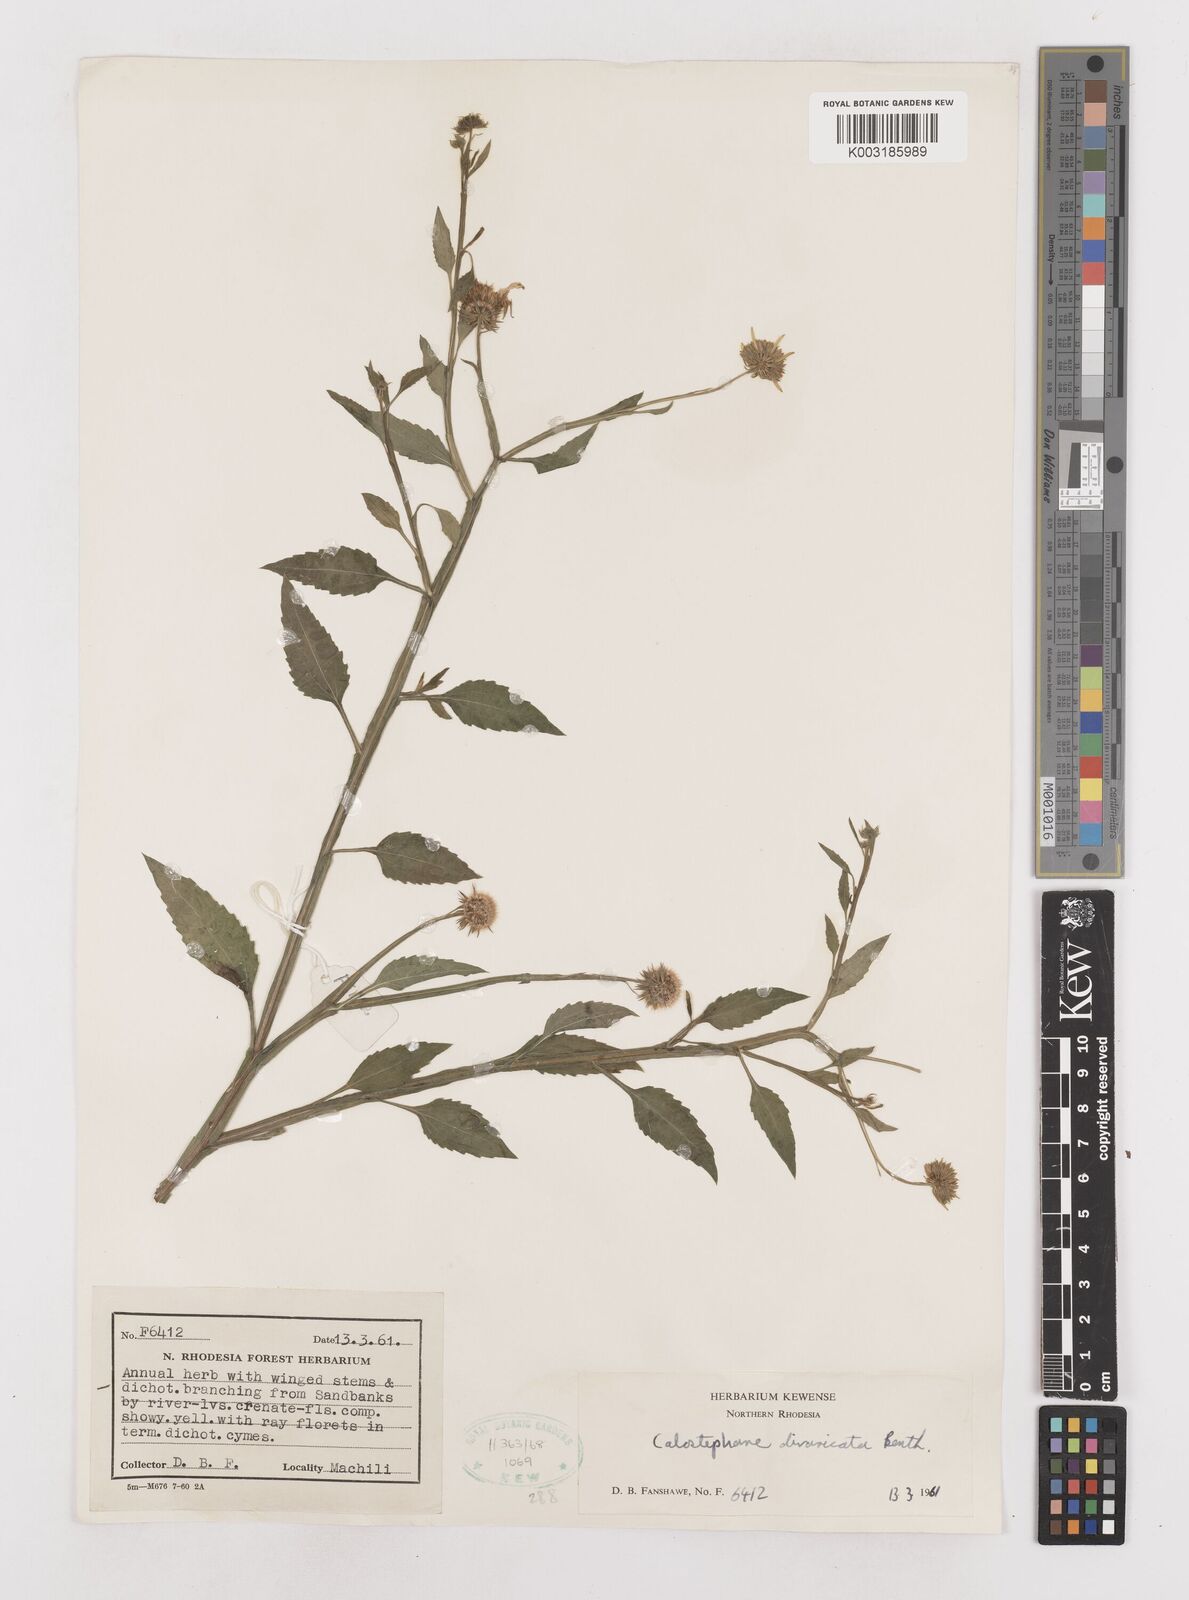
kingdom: Plantae
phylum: Tracheophyta
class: Magnoliopsida
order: Asterales
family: Asteraceae
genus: Calostephane
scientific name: Calostephane divaricata
